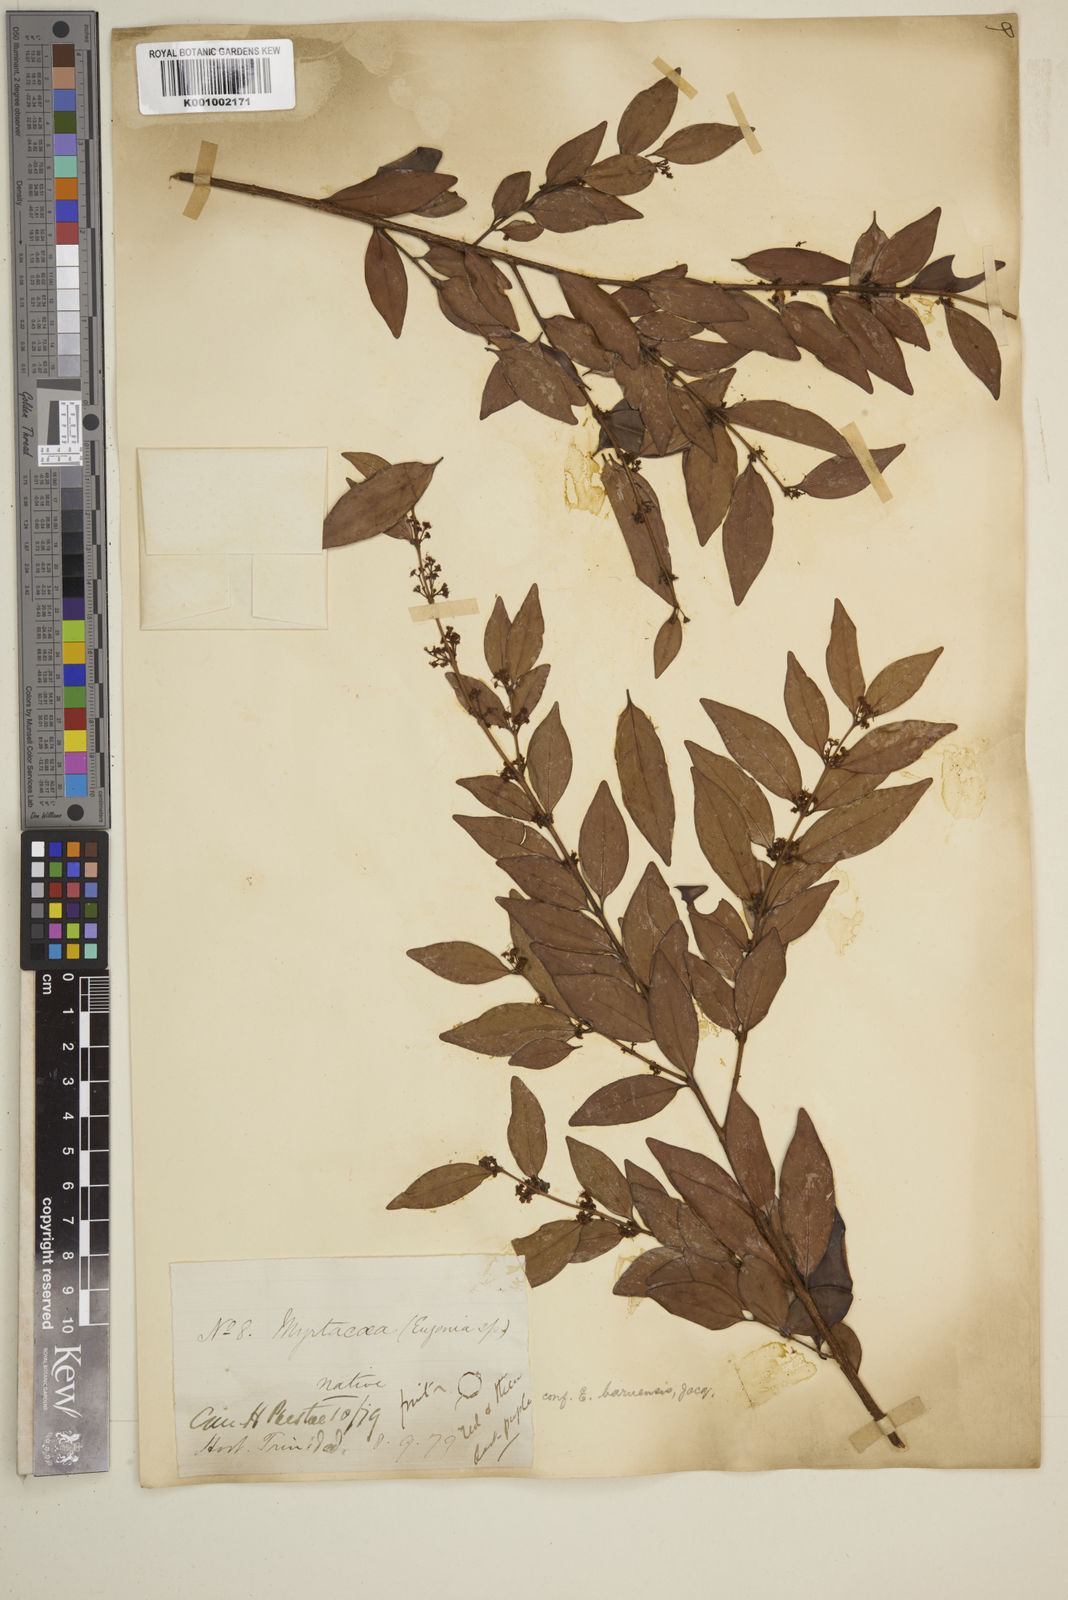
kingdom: Plantae
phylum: Tracheophyta
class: Magnoliopsida
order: Myrtales
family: Myrtaceae
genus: Eugenia
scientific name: Eugenia monticola
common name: Birds berry
